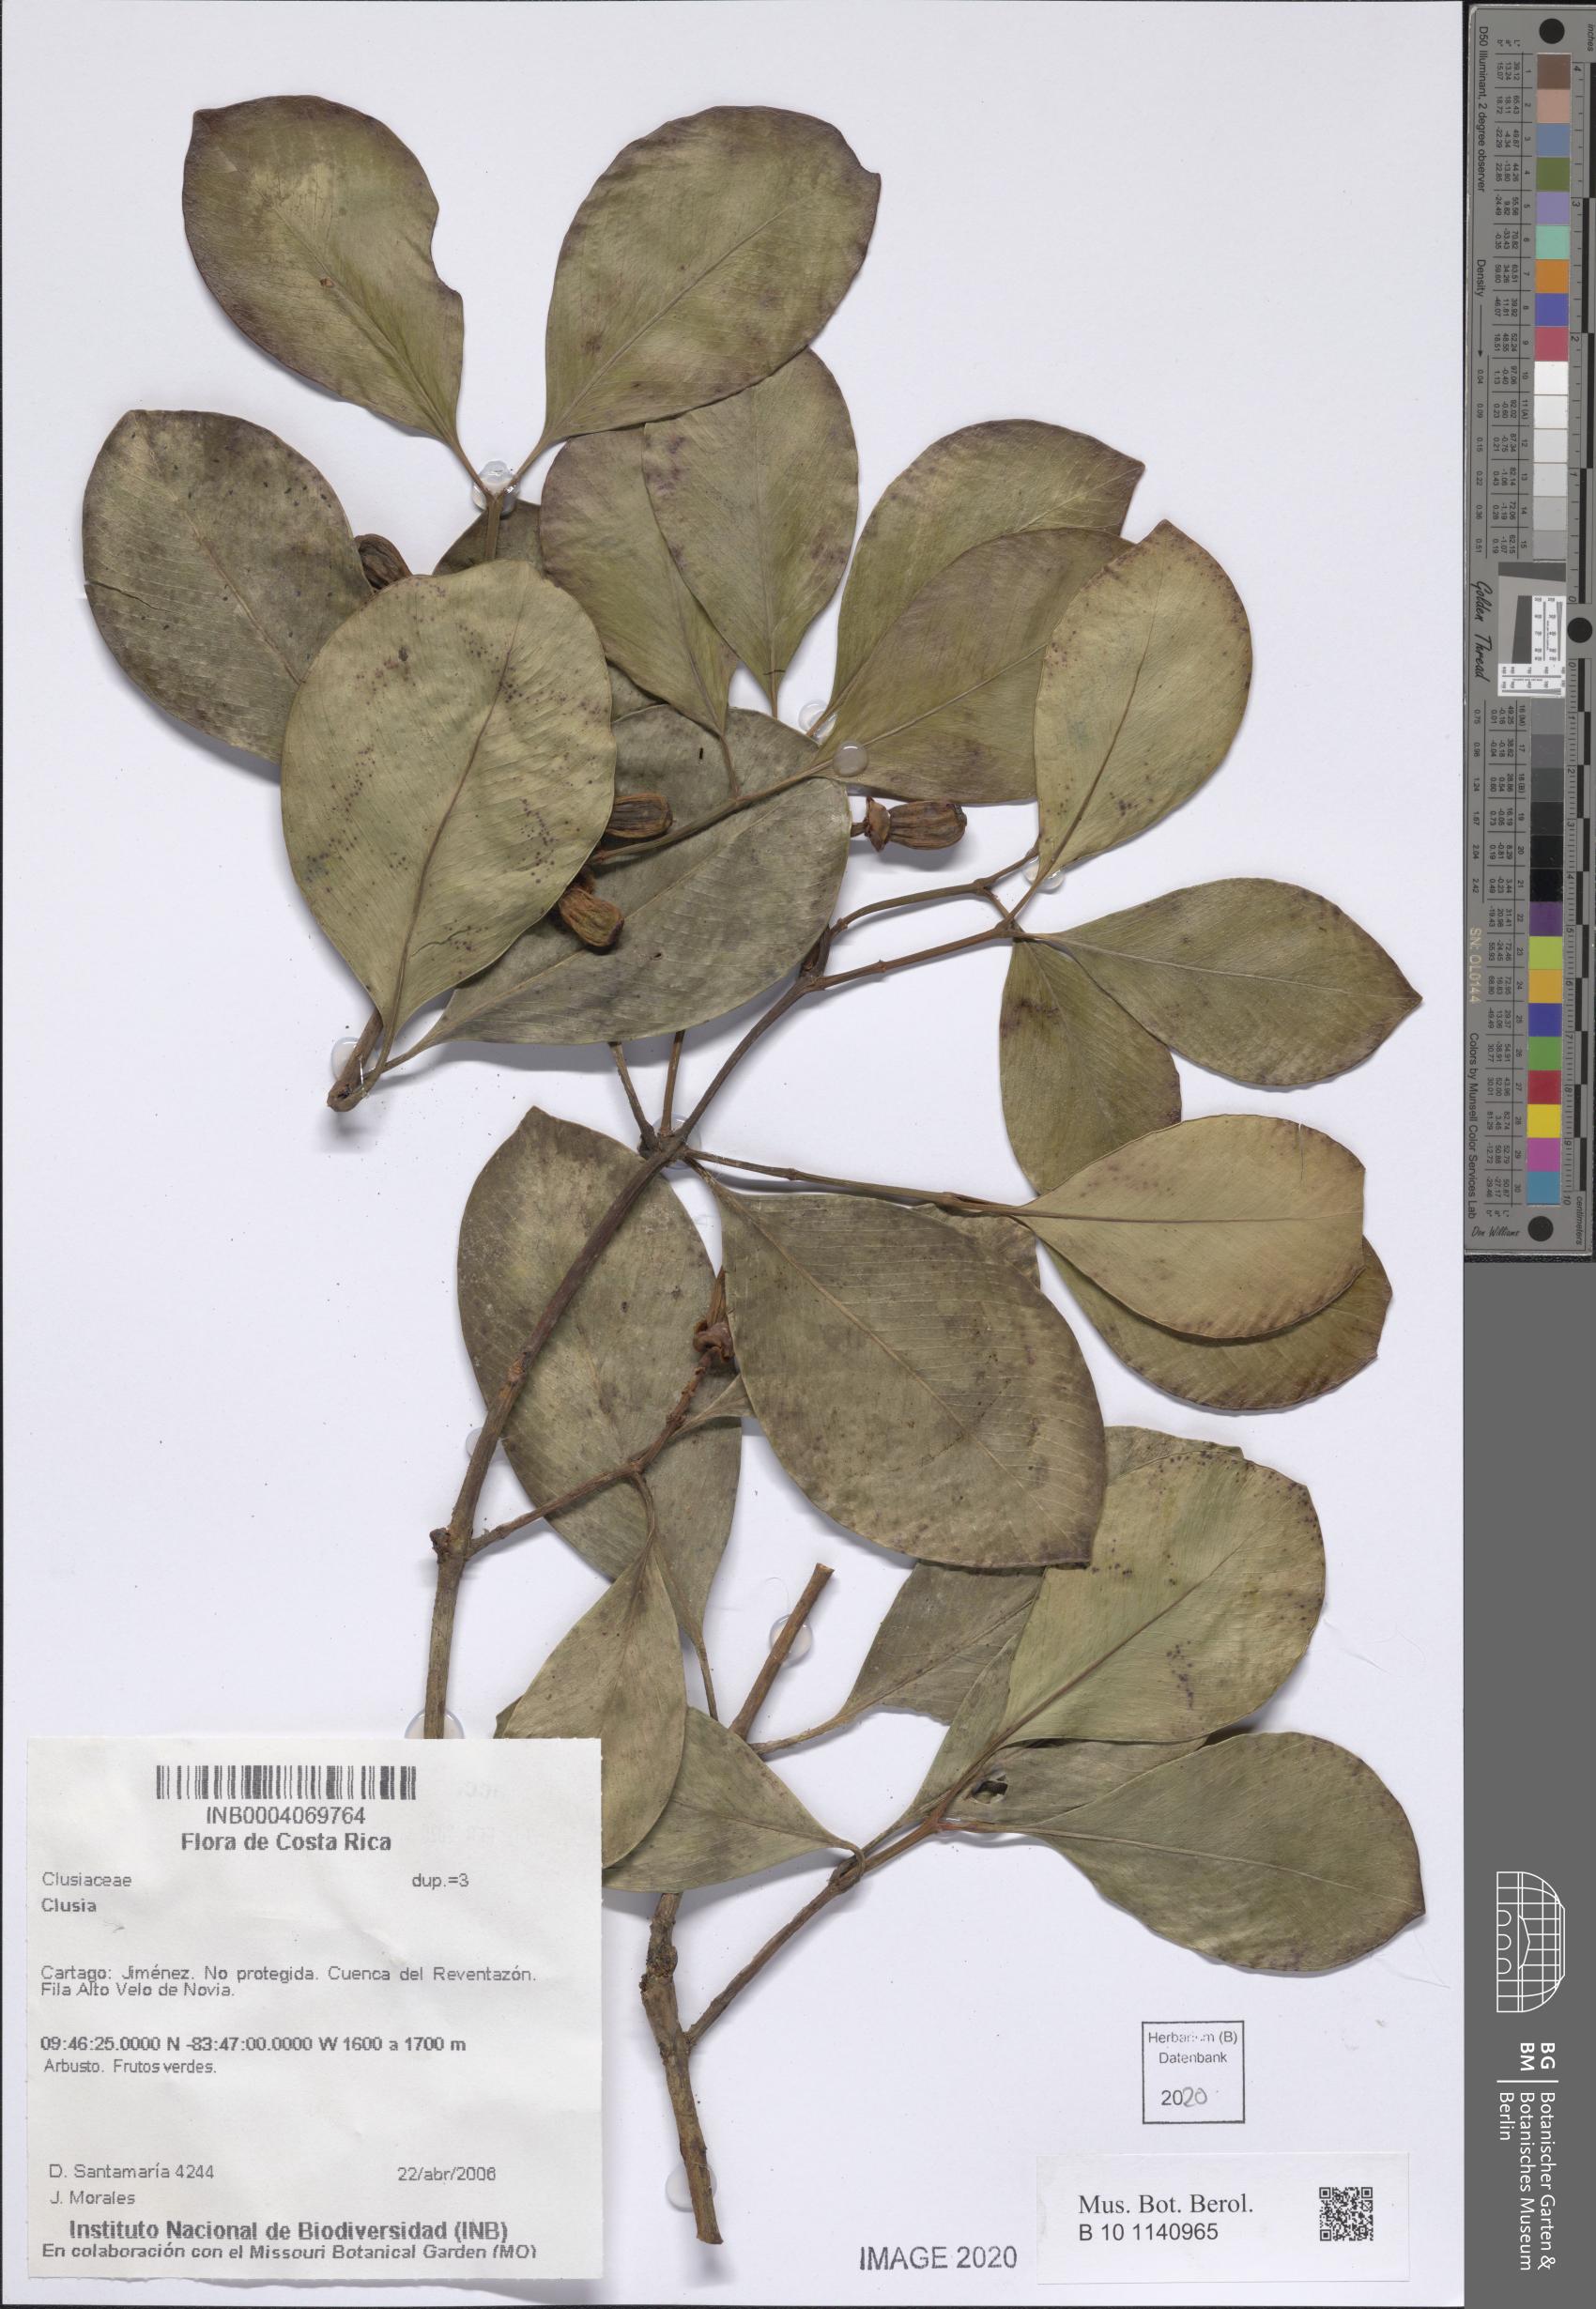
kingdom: Plantae
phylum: Tracheophyta
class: Magnoliopsida
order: Malpighiales
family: Clusiaceae
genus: Clusia
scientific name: Clusia
